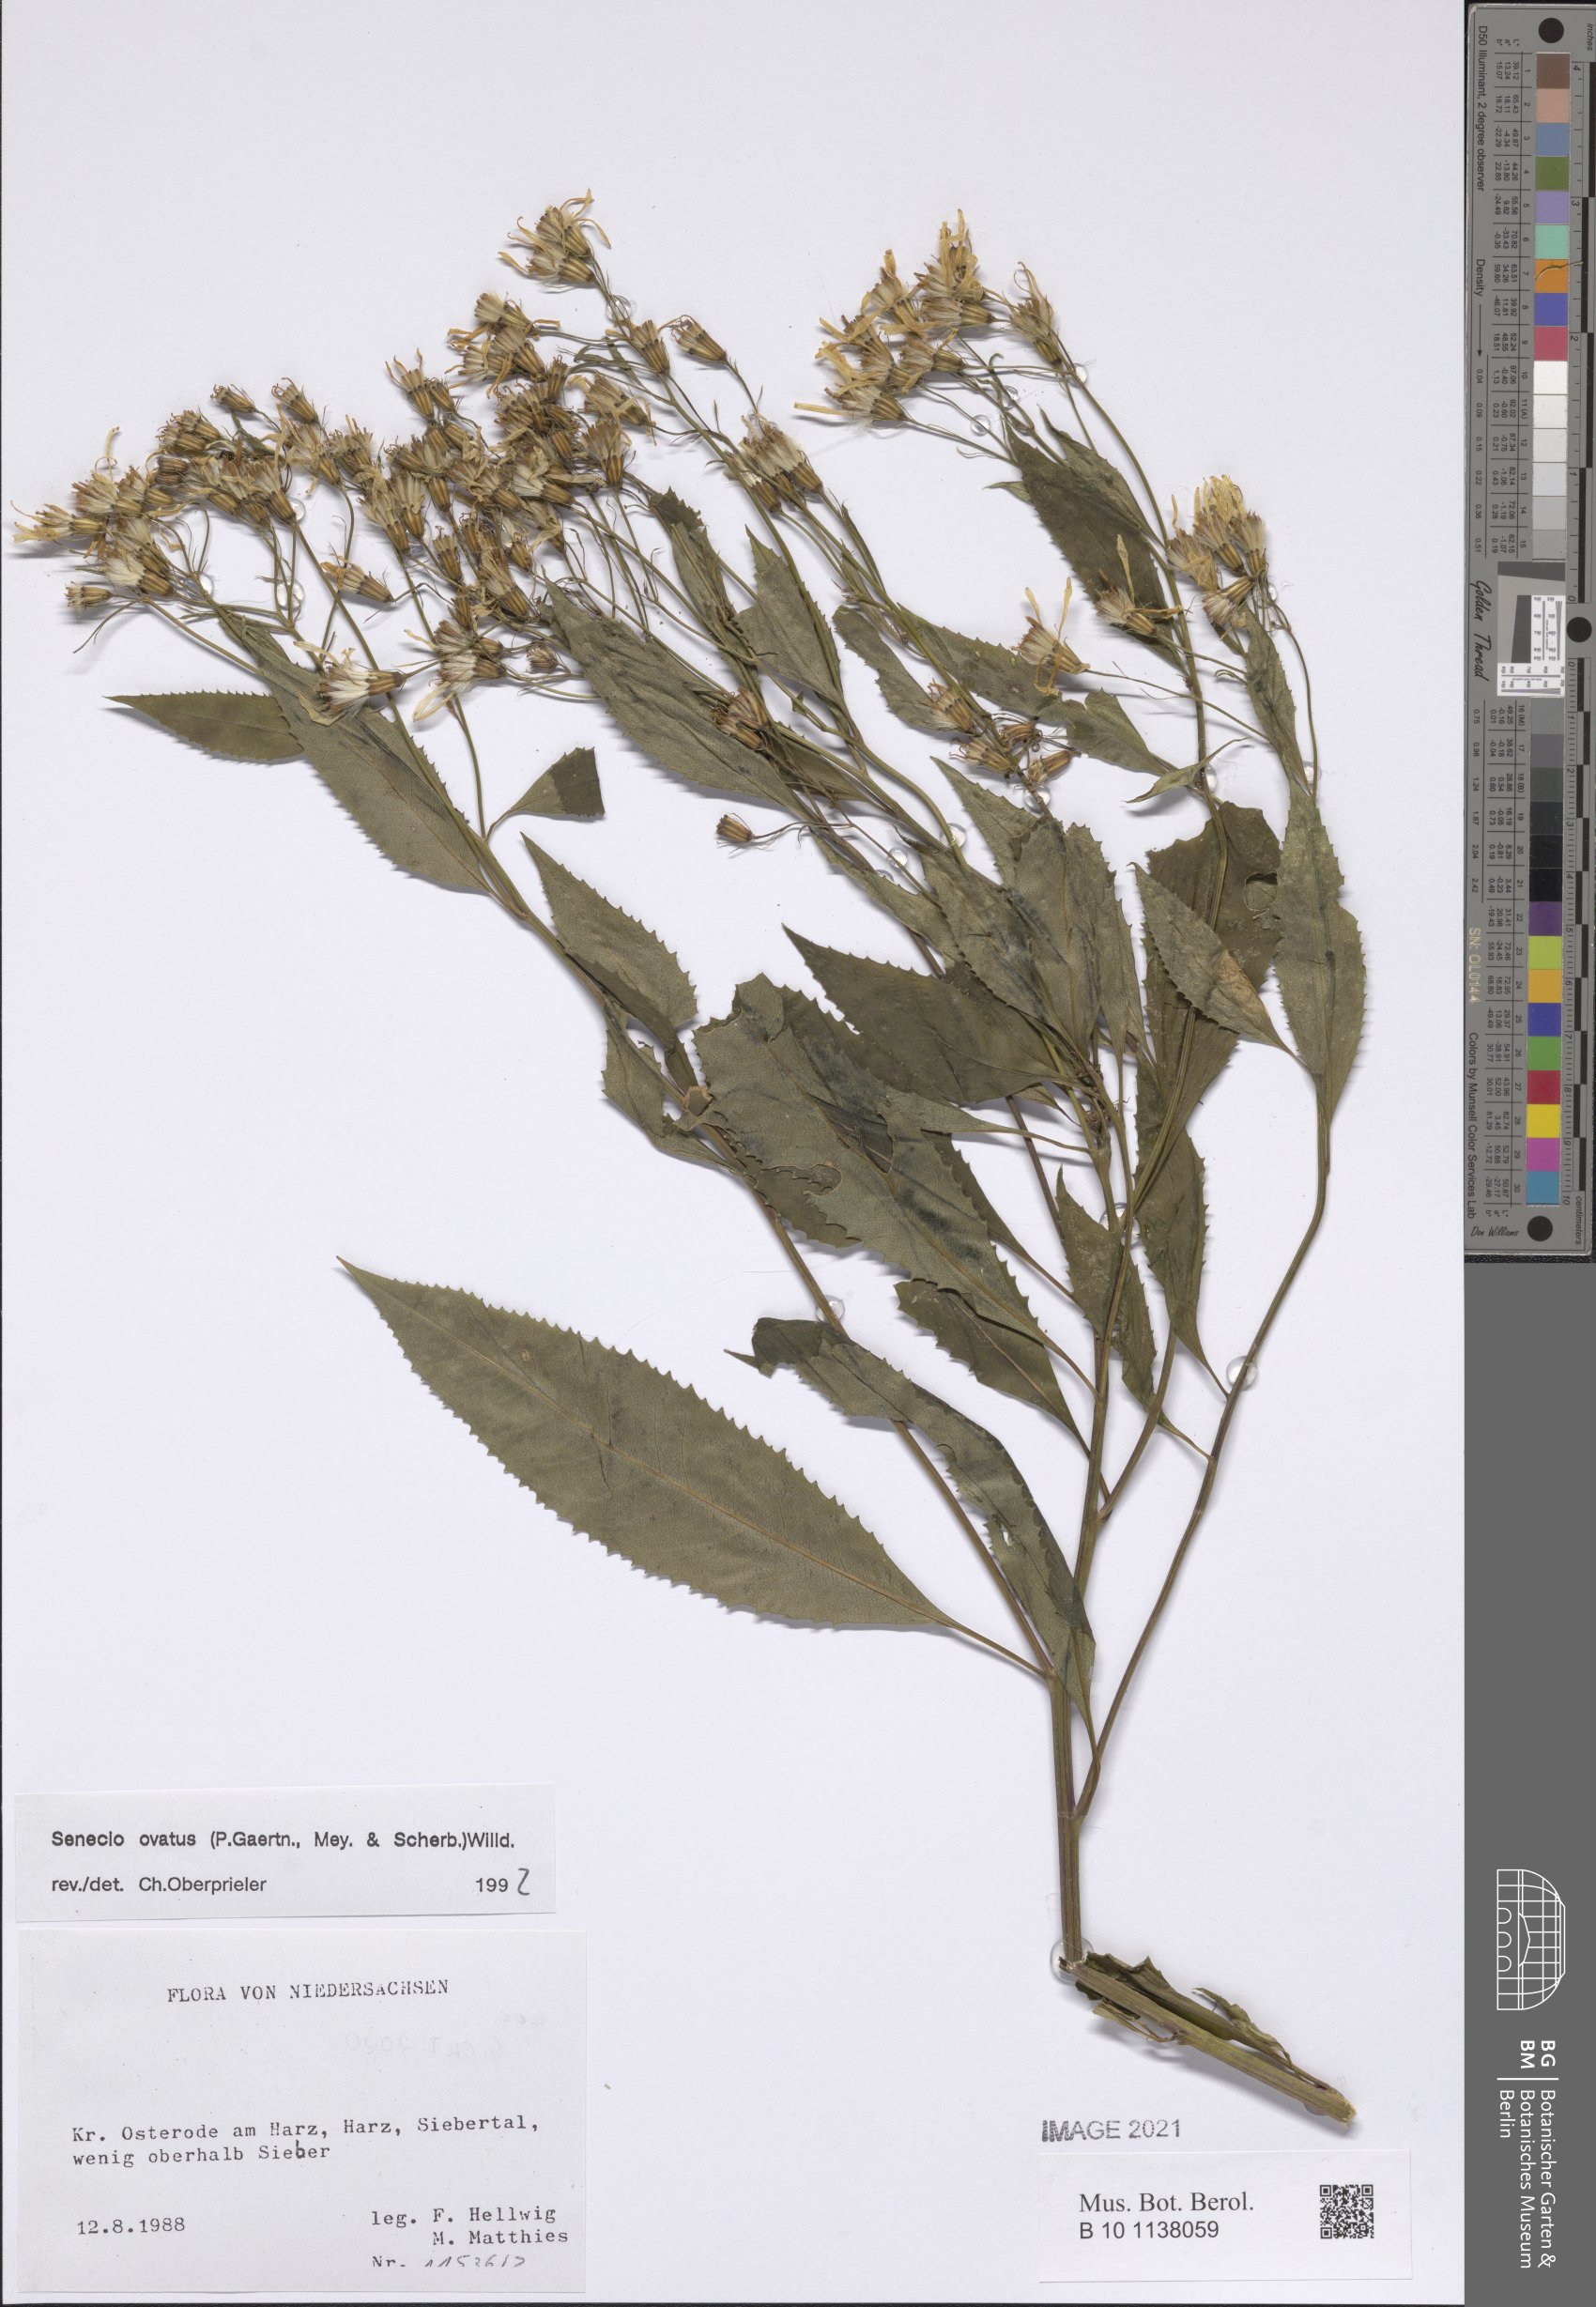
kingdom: Plantae
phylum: Tracheophyta
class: Magnoliopsida
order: Asterales
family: Asteraceae
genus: Senecio
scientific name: Senecio ovatus
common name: Wood ragwort
